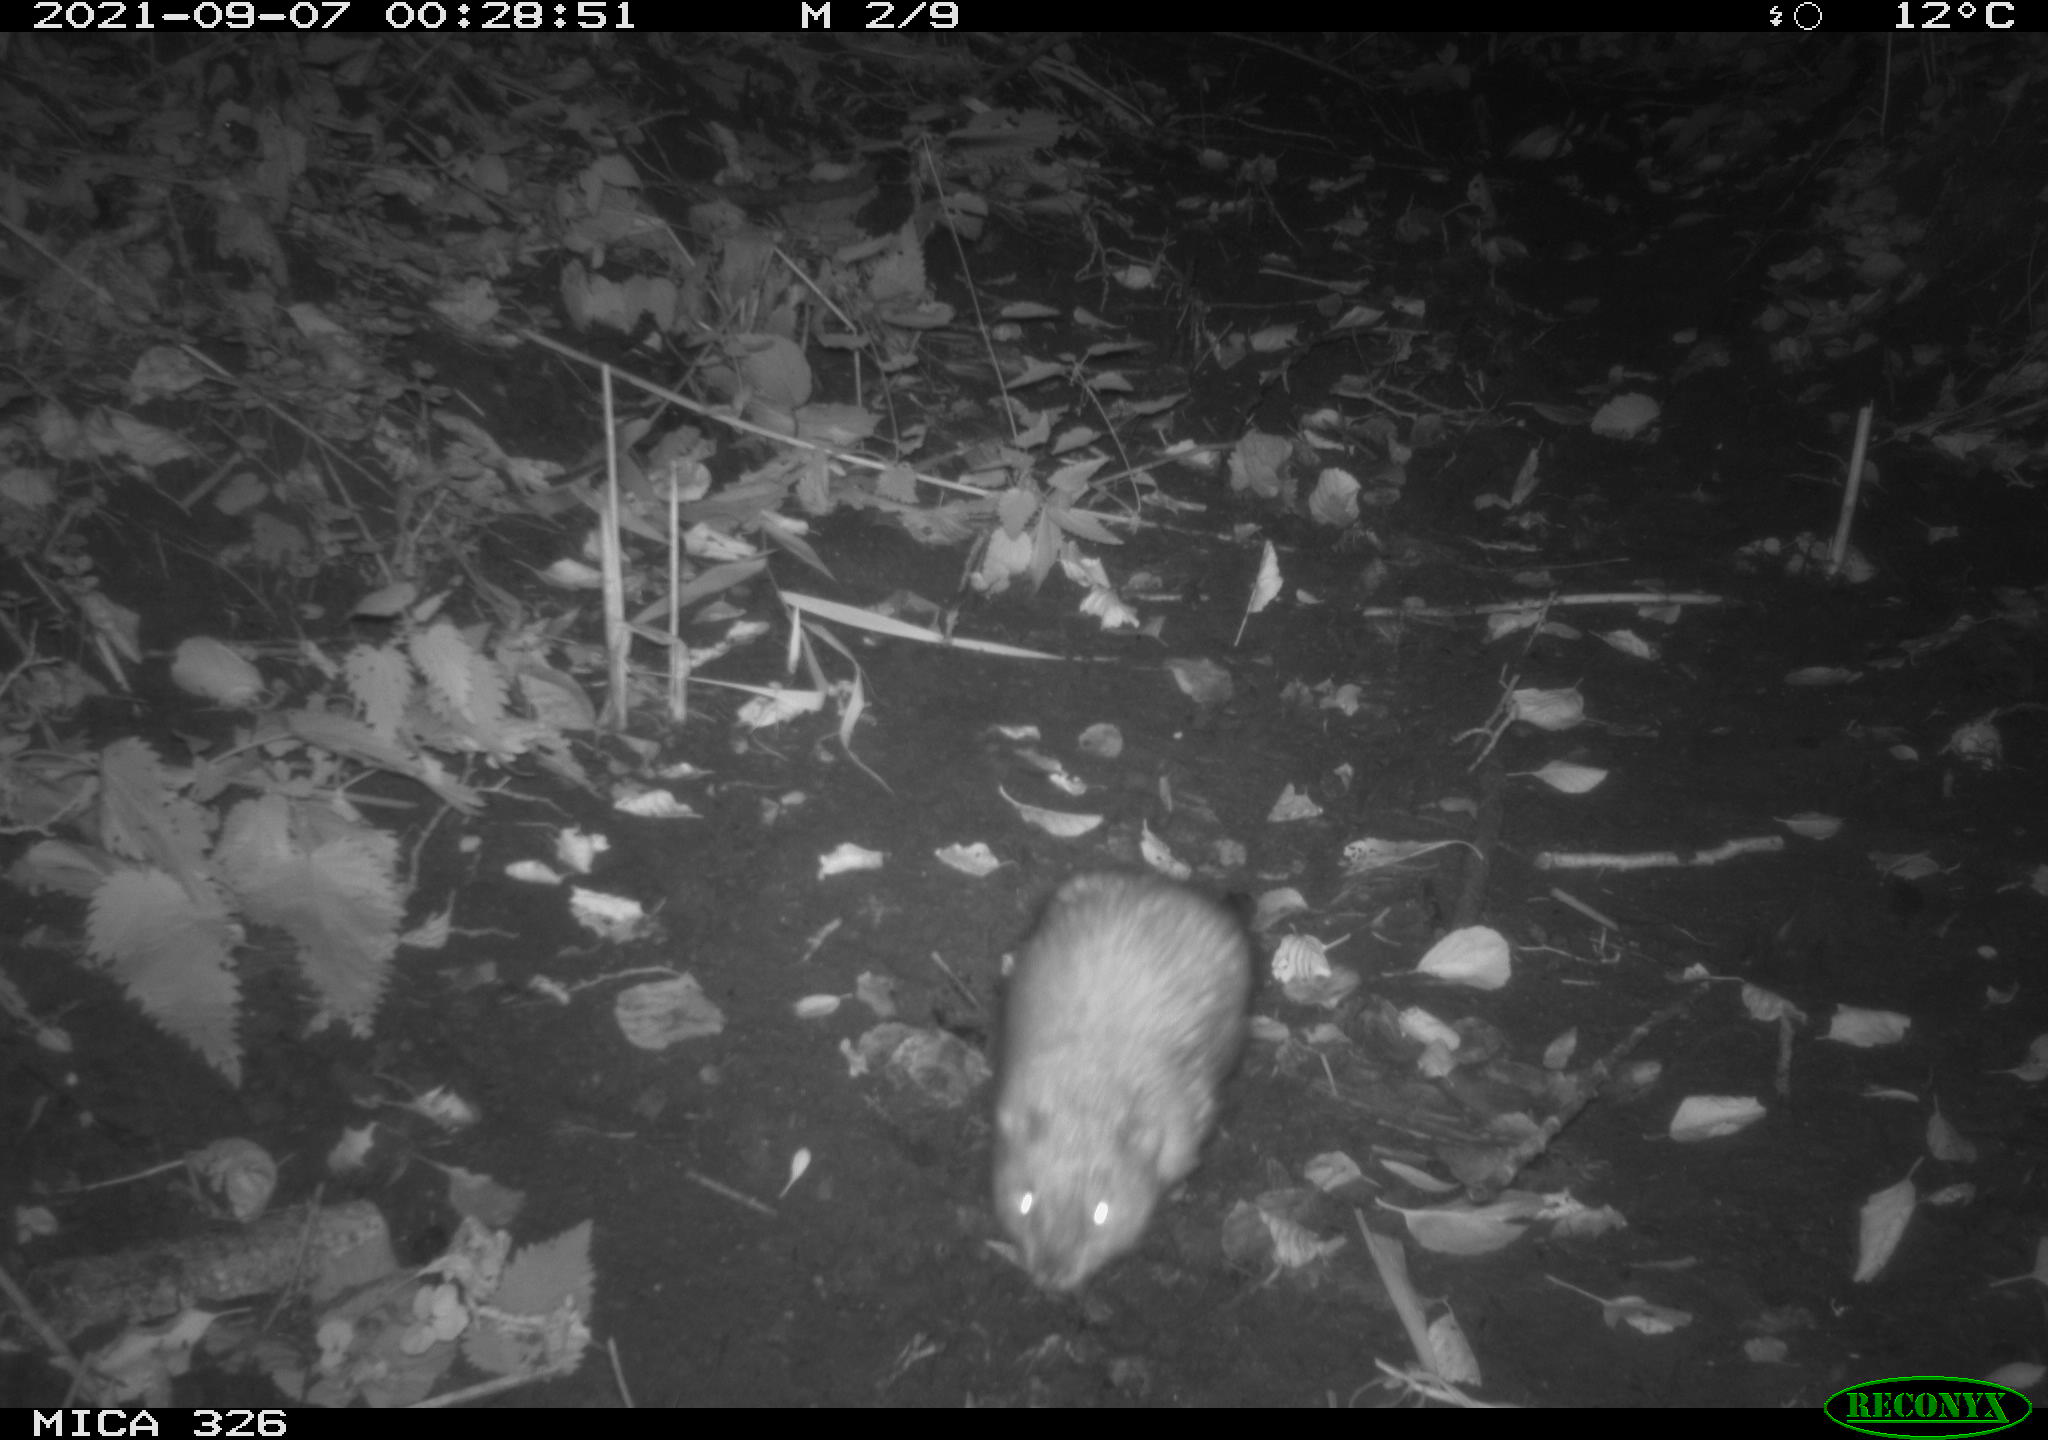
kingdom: Animalia
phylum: Chordata
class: Mammalia
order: Rodentia
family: Cricetidae
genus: Ondatra
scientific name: Ondatra zibethicus
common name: Muskrat
